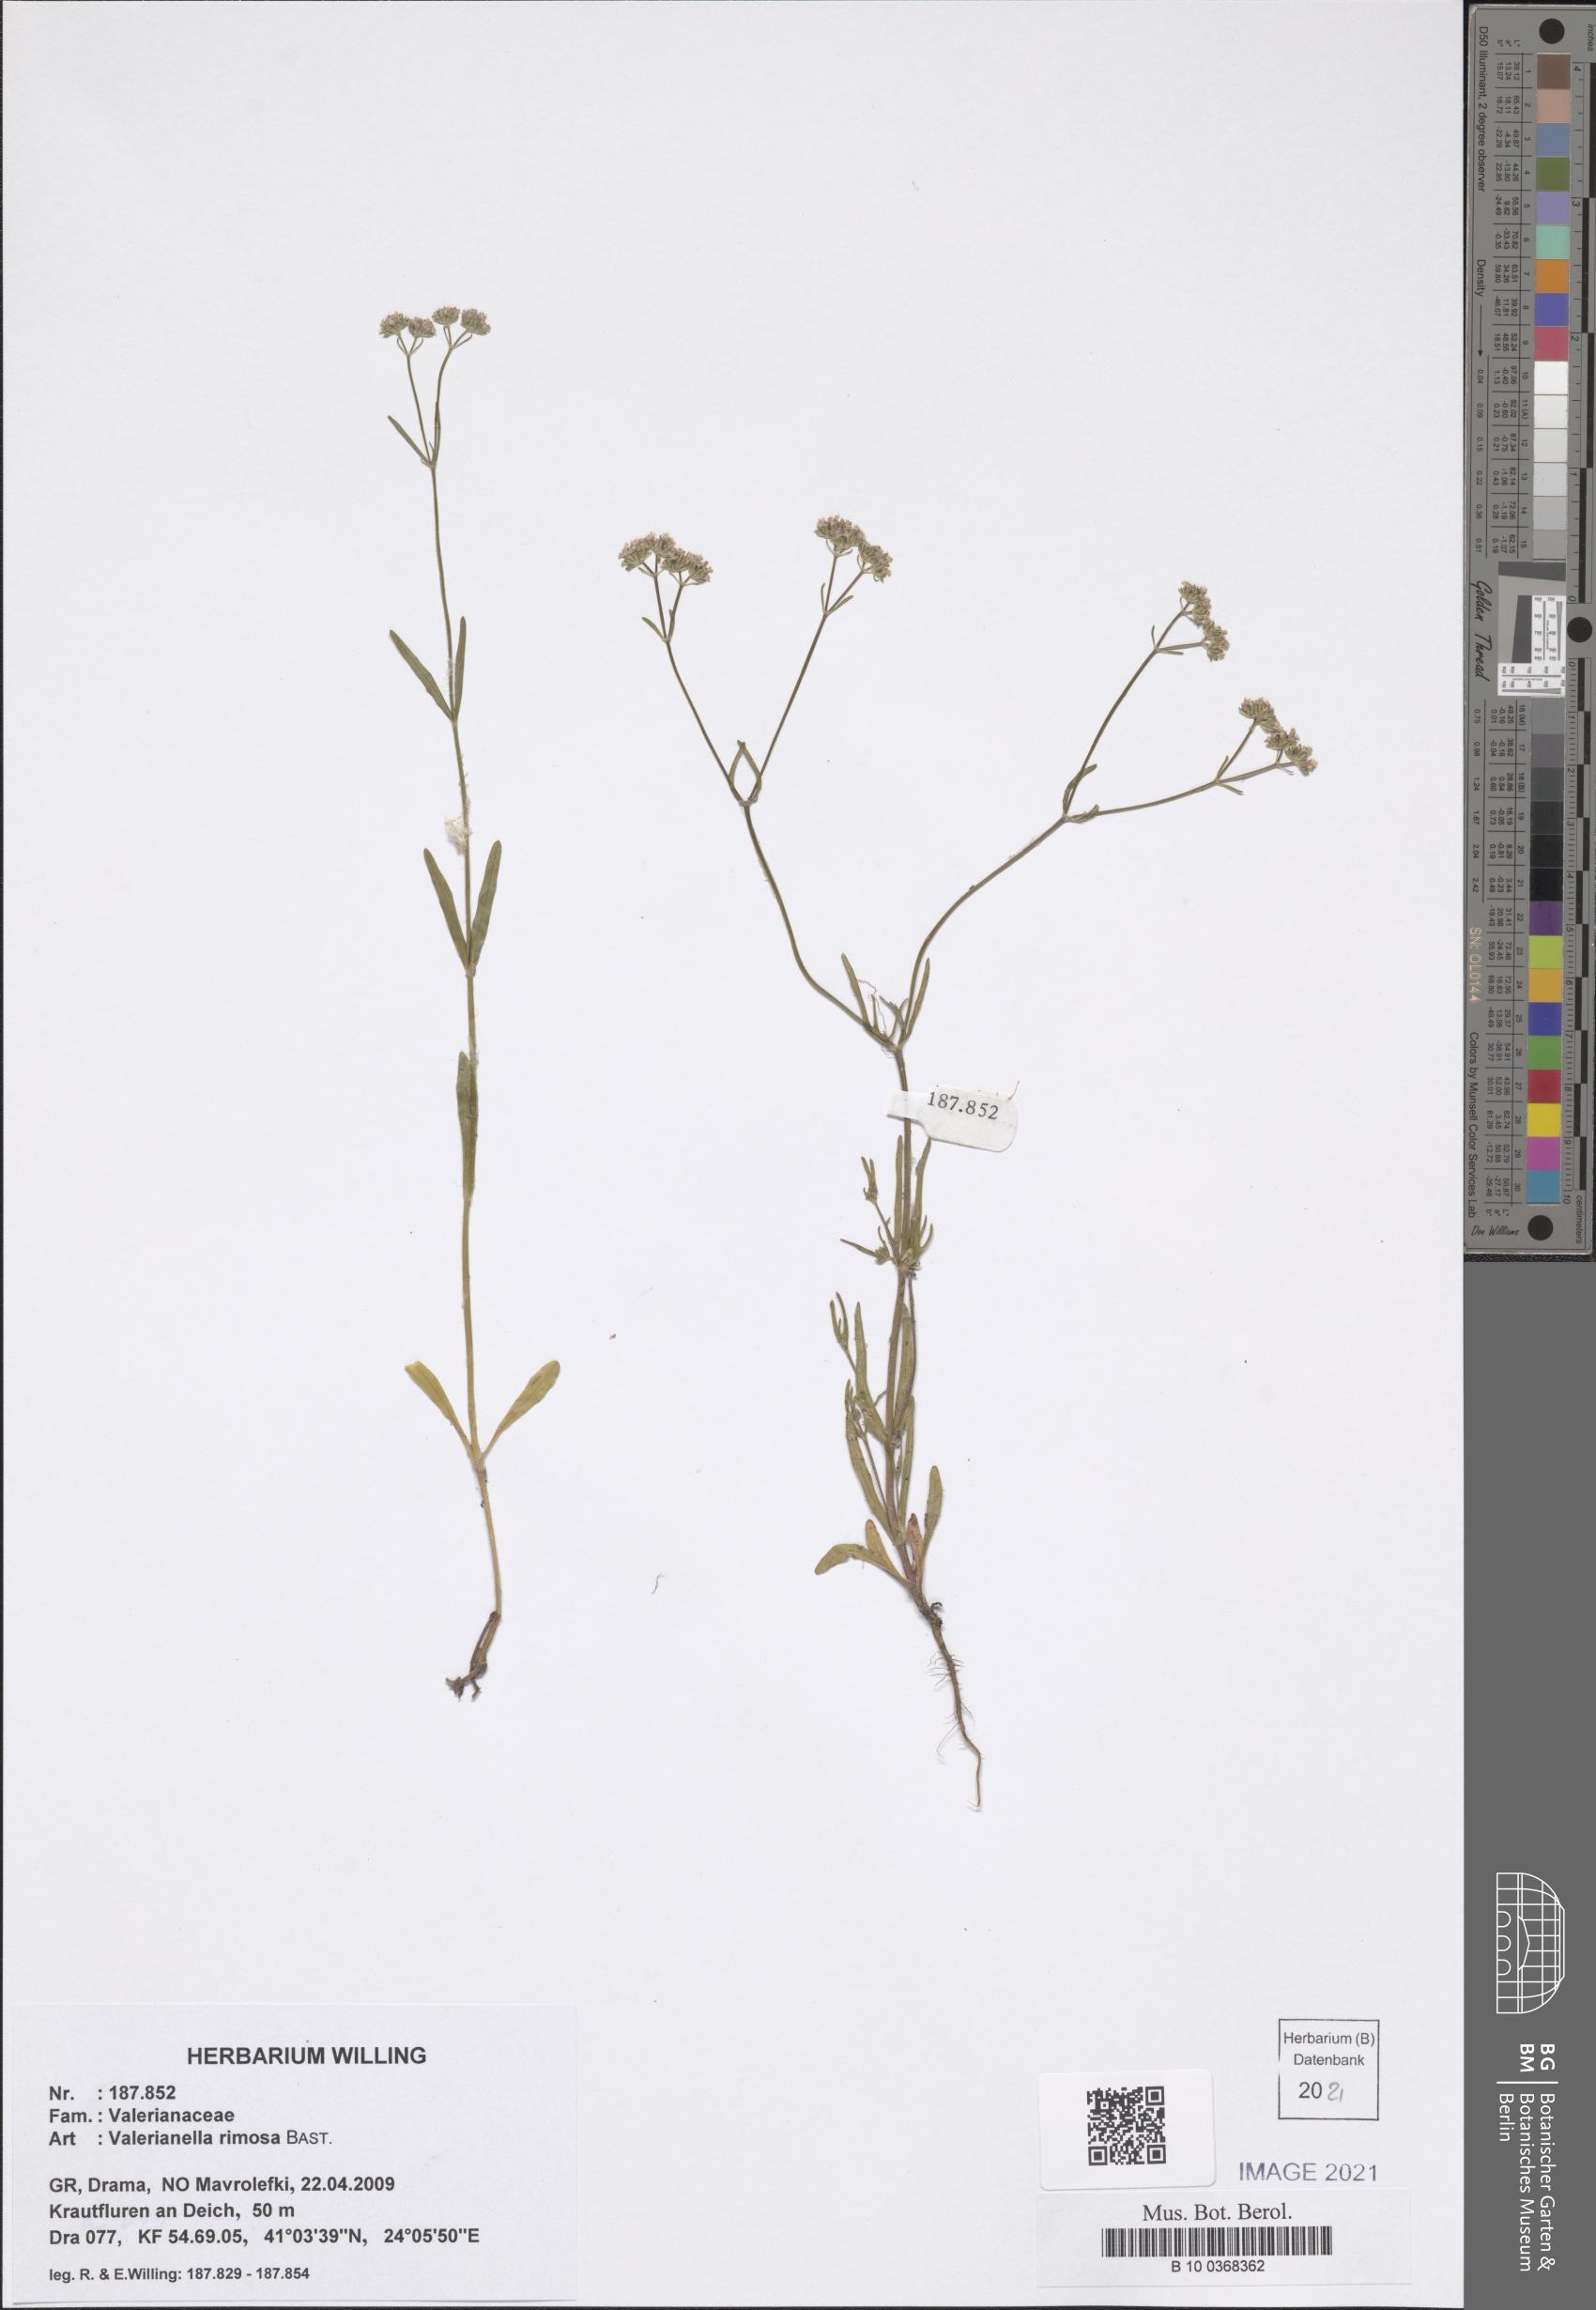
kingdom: Plantae
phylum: Tracheophyta
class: Magnoliopsida
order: Dipsacales
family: Caprifoliaceae
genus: Valerianella
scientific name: Valerianella rimosa
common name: Broad-fruited cornsalad
